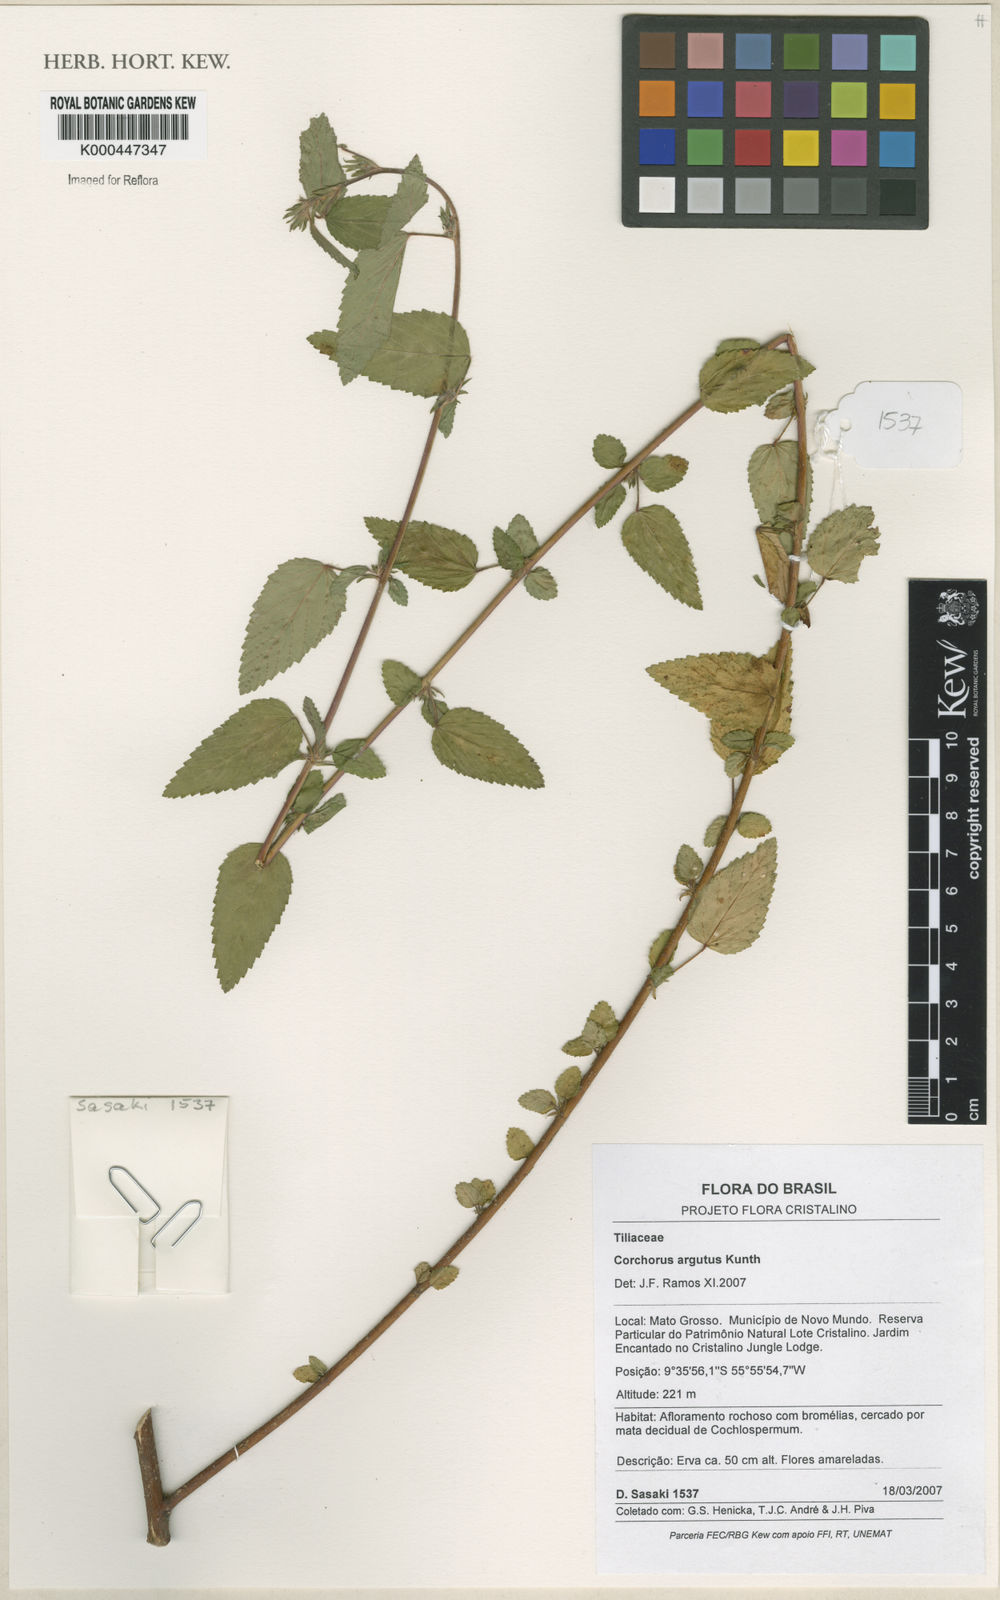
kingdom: Plantae
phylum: Tracheophyta
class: Magnoliopsida
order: Malvales
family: Malvaceae
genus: Corchorus
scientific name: Corchorus argutus
